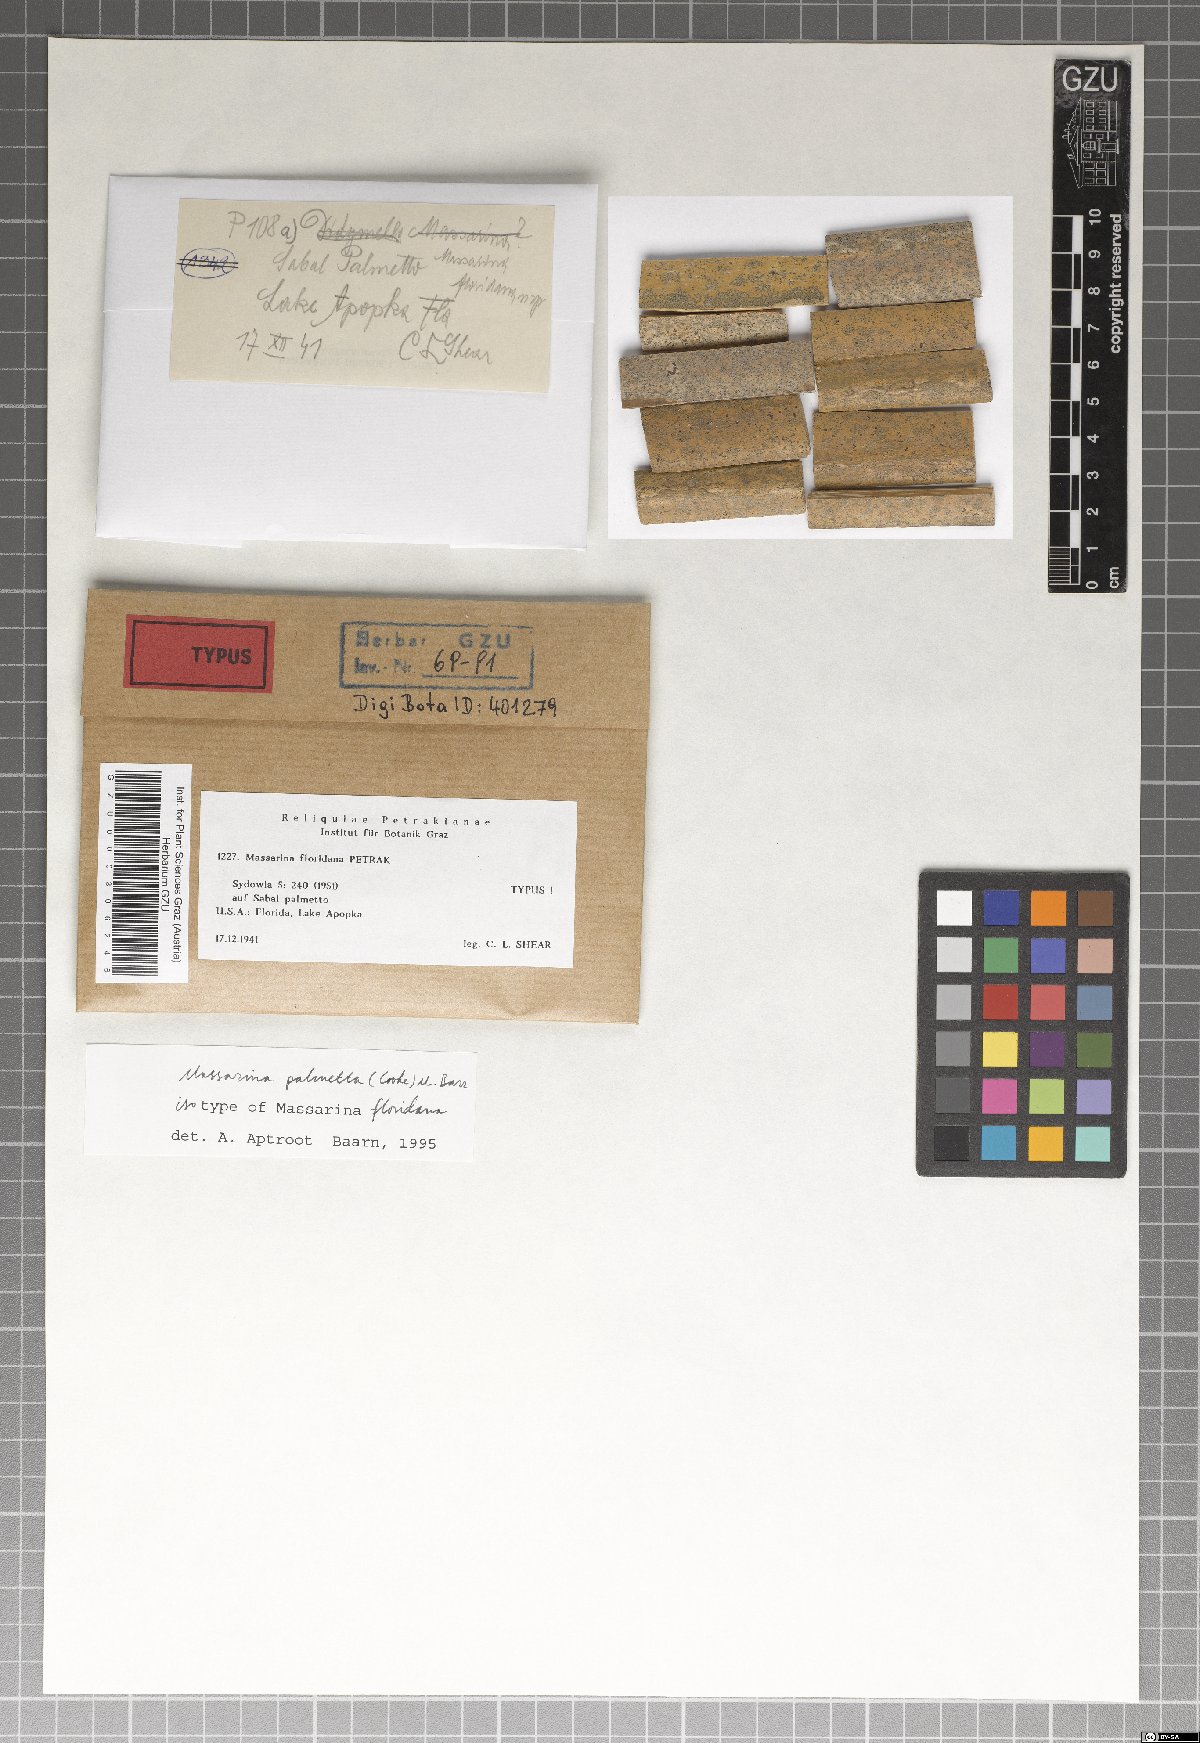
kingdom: Fungi
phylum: Ascomycota
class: Dothideomycetes
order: Pleosporales
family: Massarinaceae
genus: Massarina
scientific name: Massarina floridana
